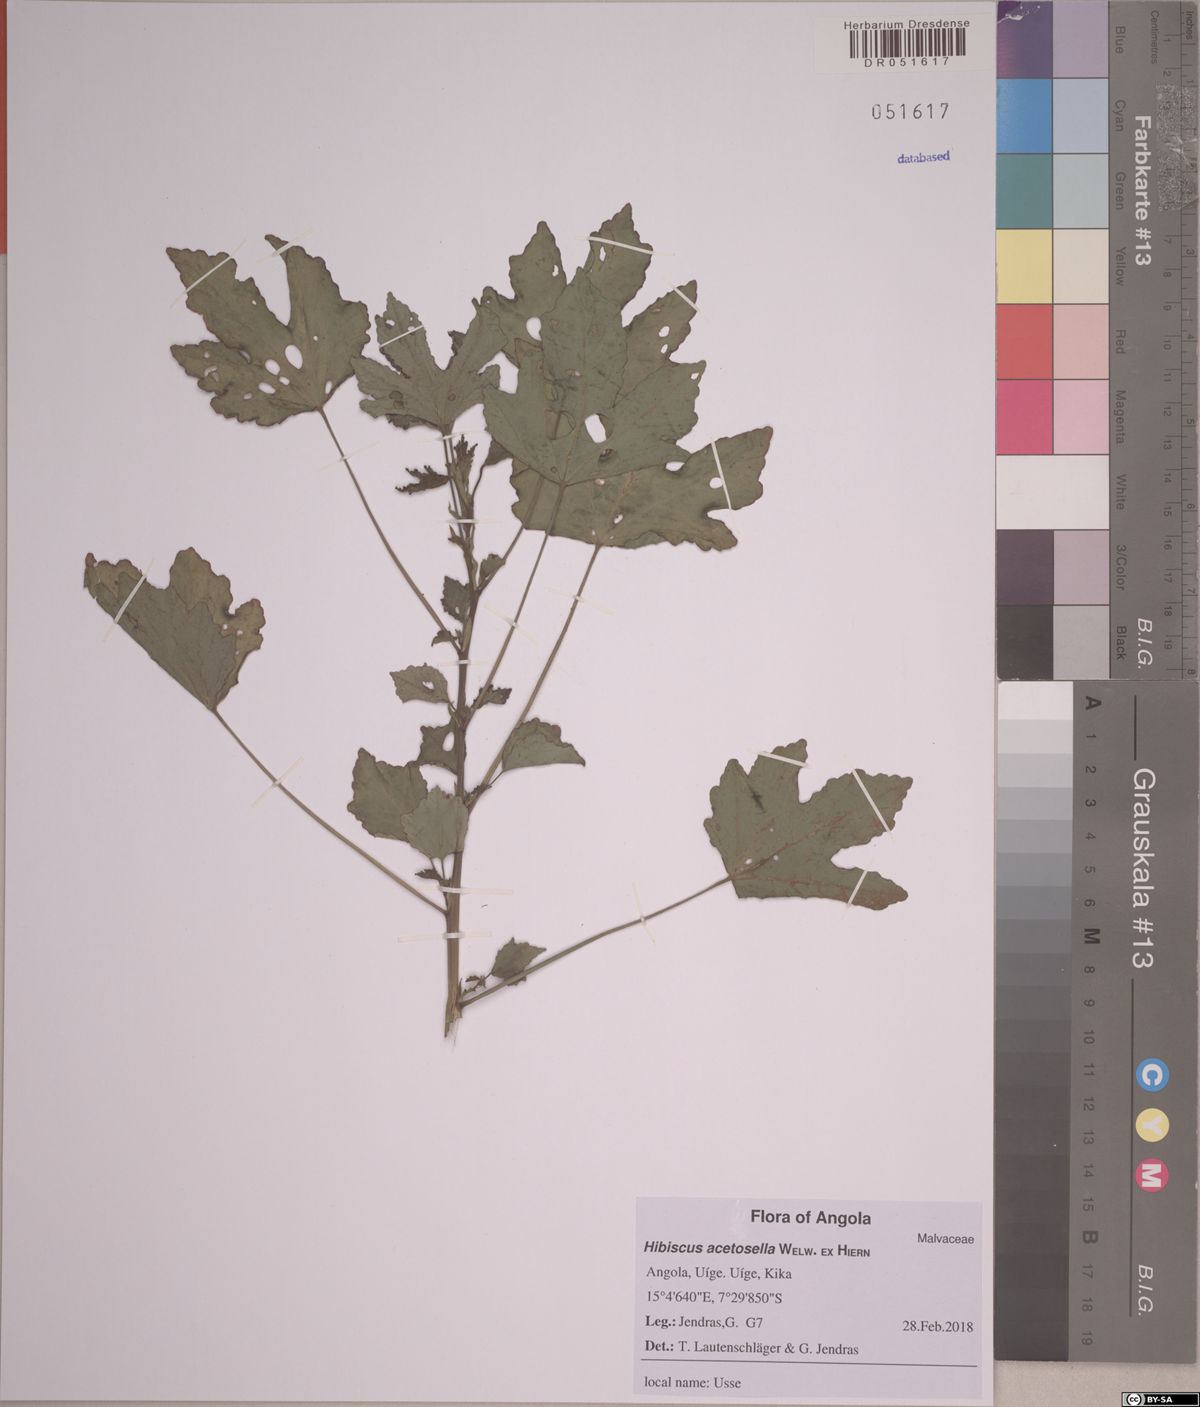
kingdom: Plantae
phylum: Tracheophyta
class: Magnoliopsida
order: Malvales
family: Malvaceae
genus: Hibiscus
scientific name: Hibiscus acetosella
